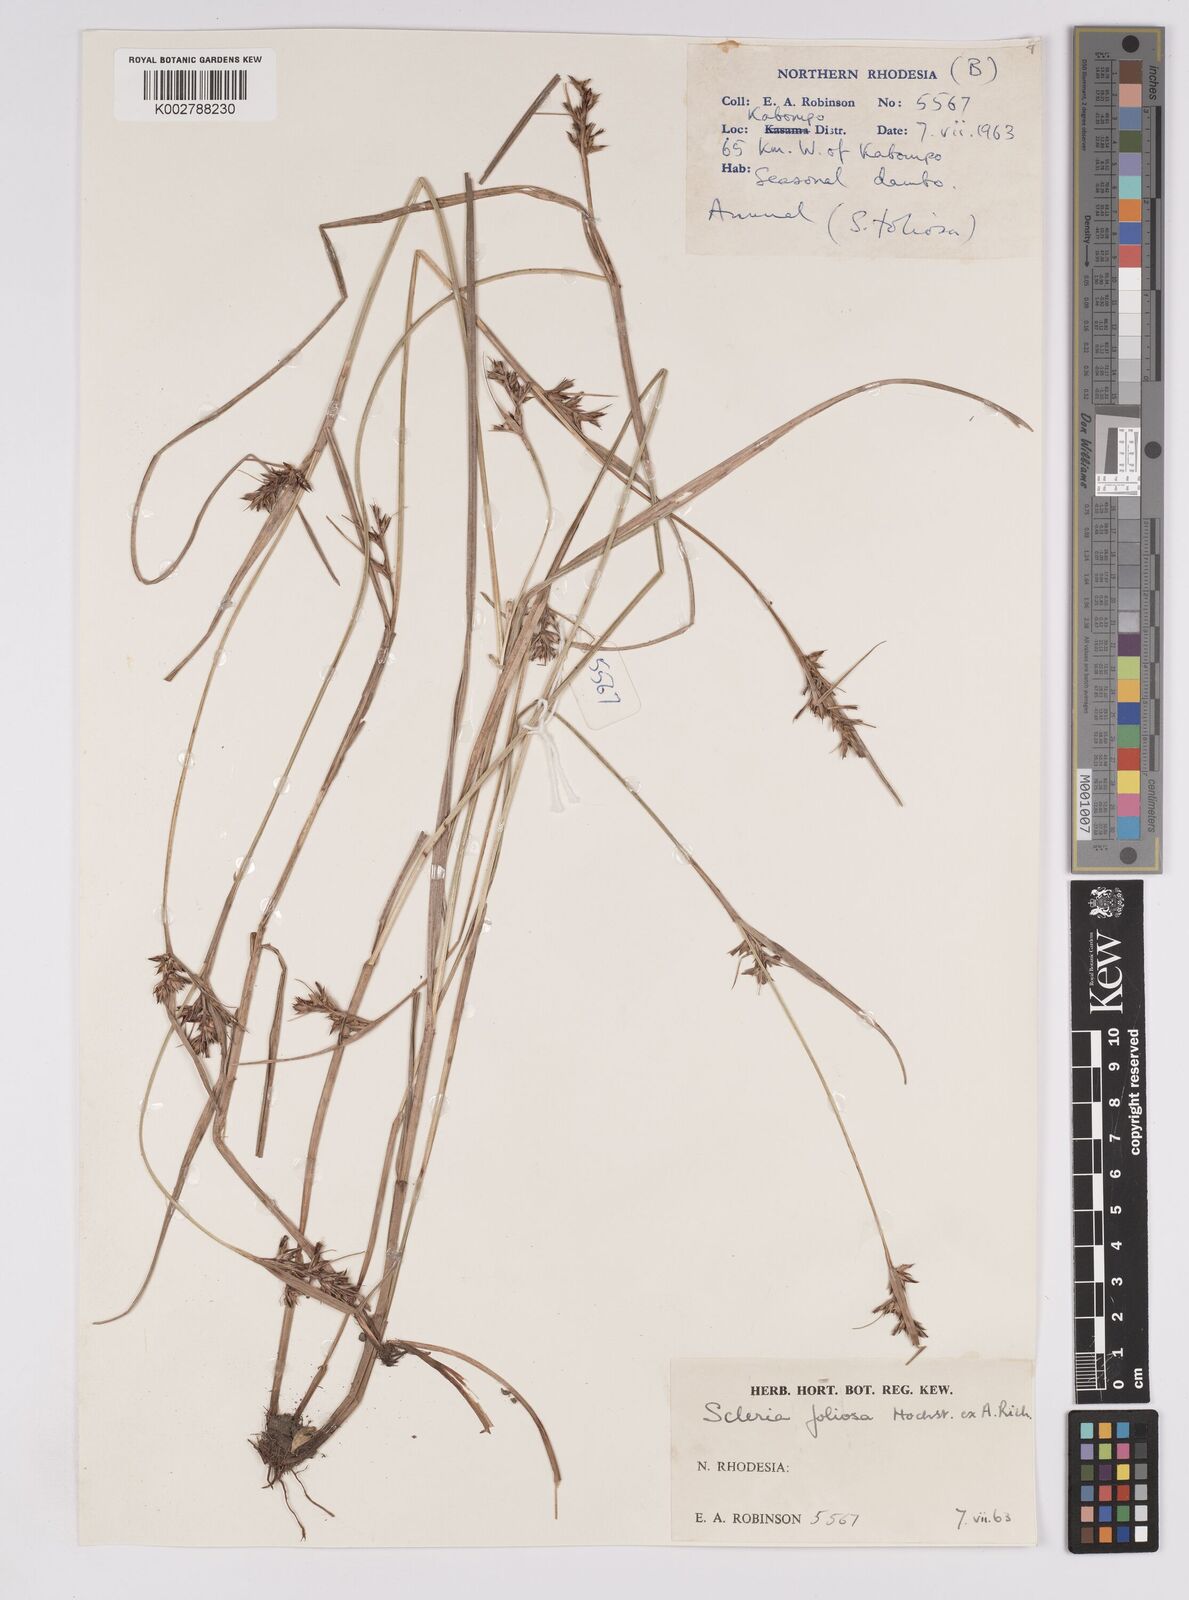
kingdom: Plantae
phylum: Tracheophyta
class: Liliopsida
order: Poales
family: Cyperaceae
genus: Scleria
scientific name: Scleria foliosa
